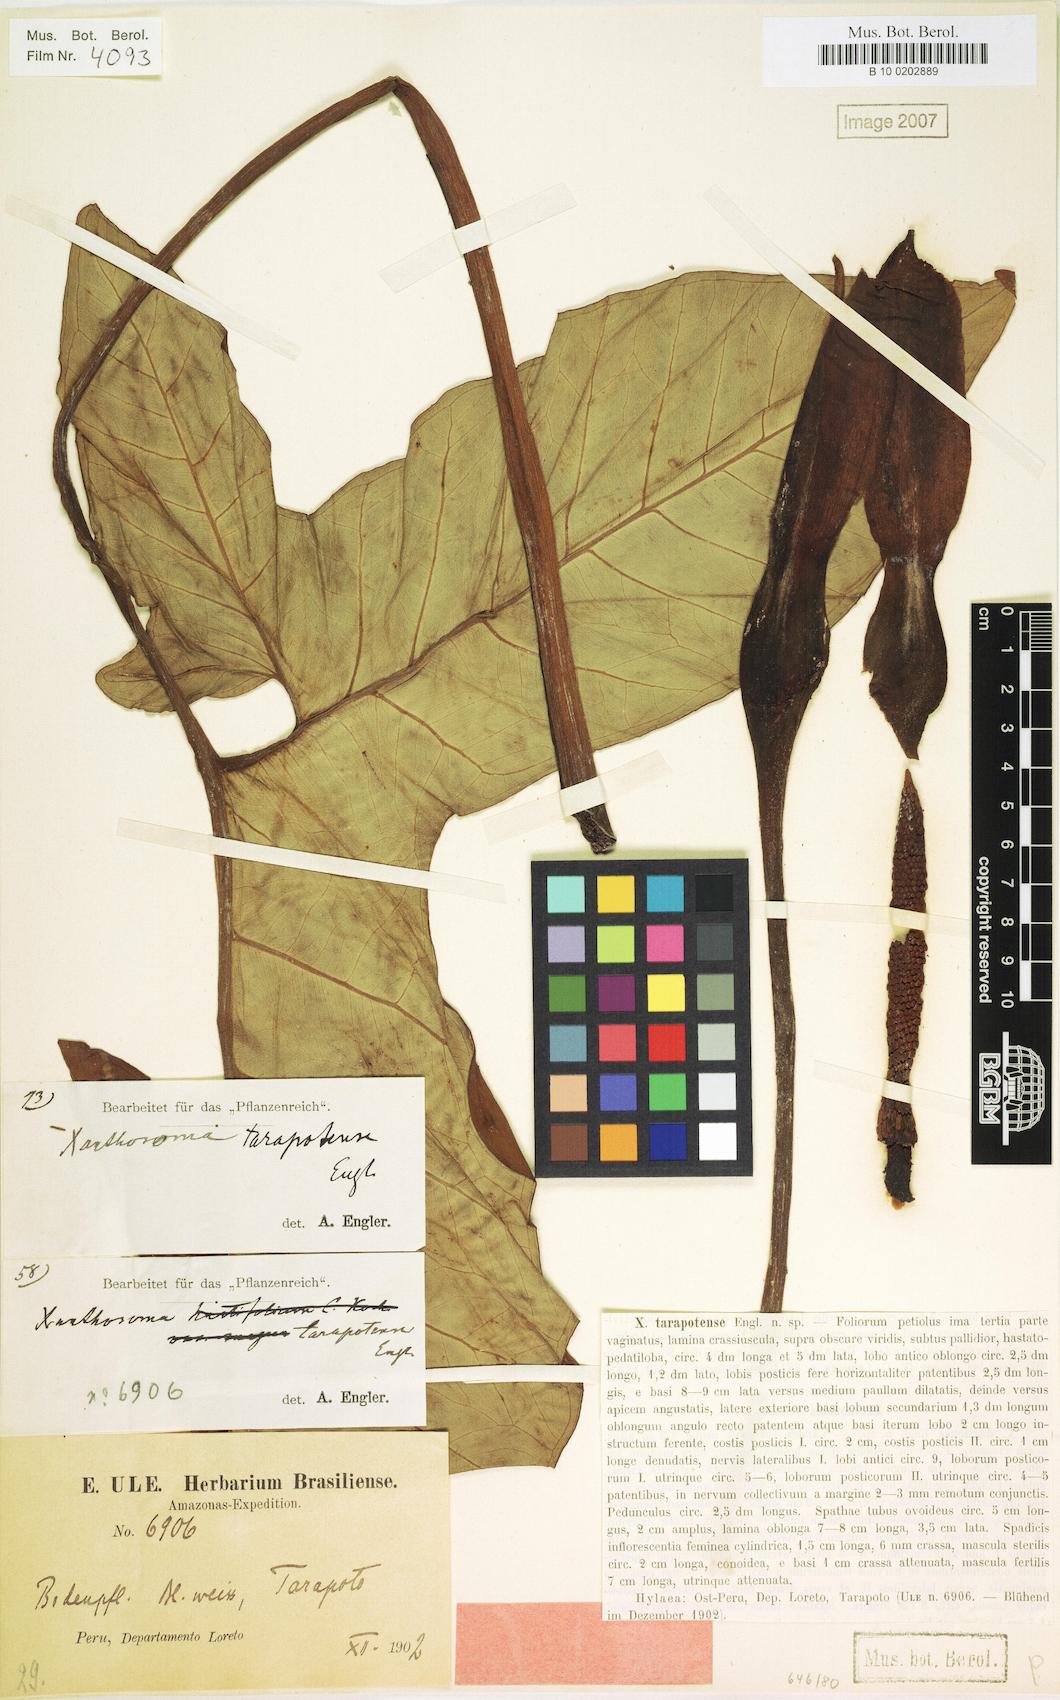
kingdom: Plantae
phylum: Tracheophyta
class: Liliopsida
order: Alismatales
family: Araceae
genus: Xanthosoma
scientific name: Xanthosoma tarapotense
